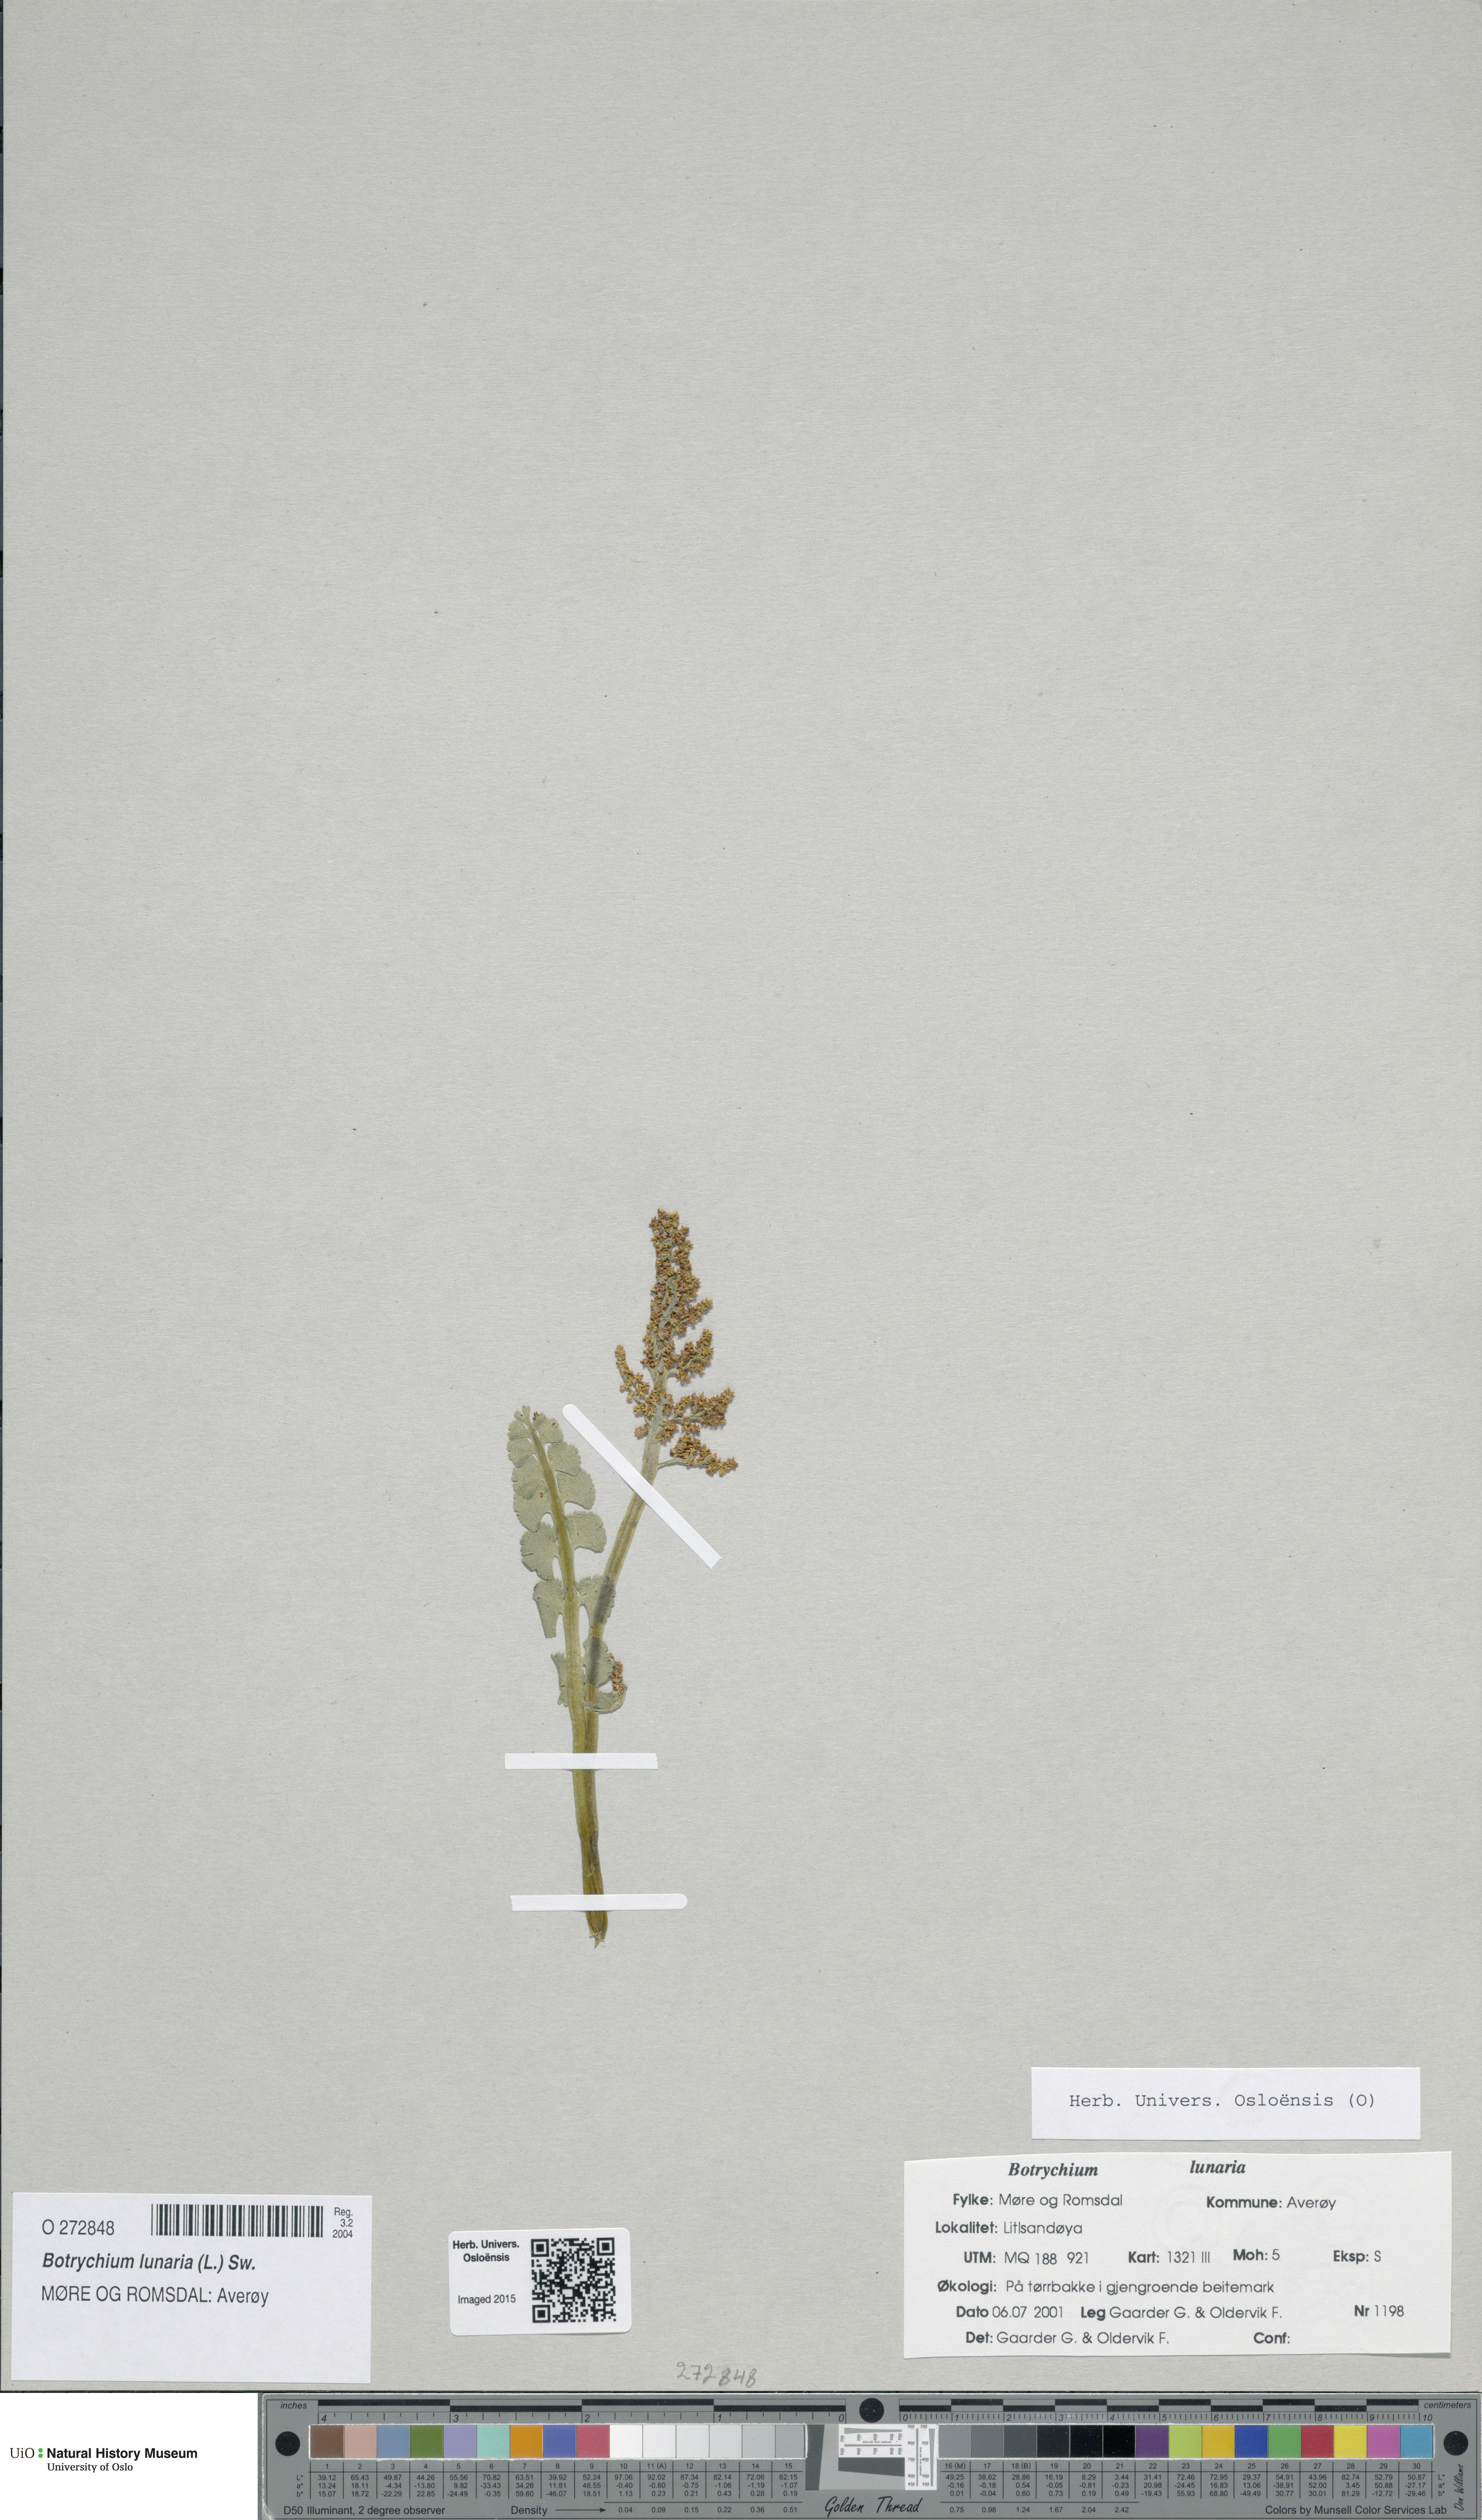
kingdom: Plantae
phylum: Tracheophyta
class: Polypodiopsida
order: Ophioglossales
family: Ophioglossaceae
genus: Botrychium
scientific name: Botrychium lunaria
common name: Moonwort
